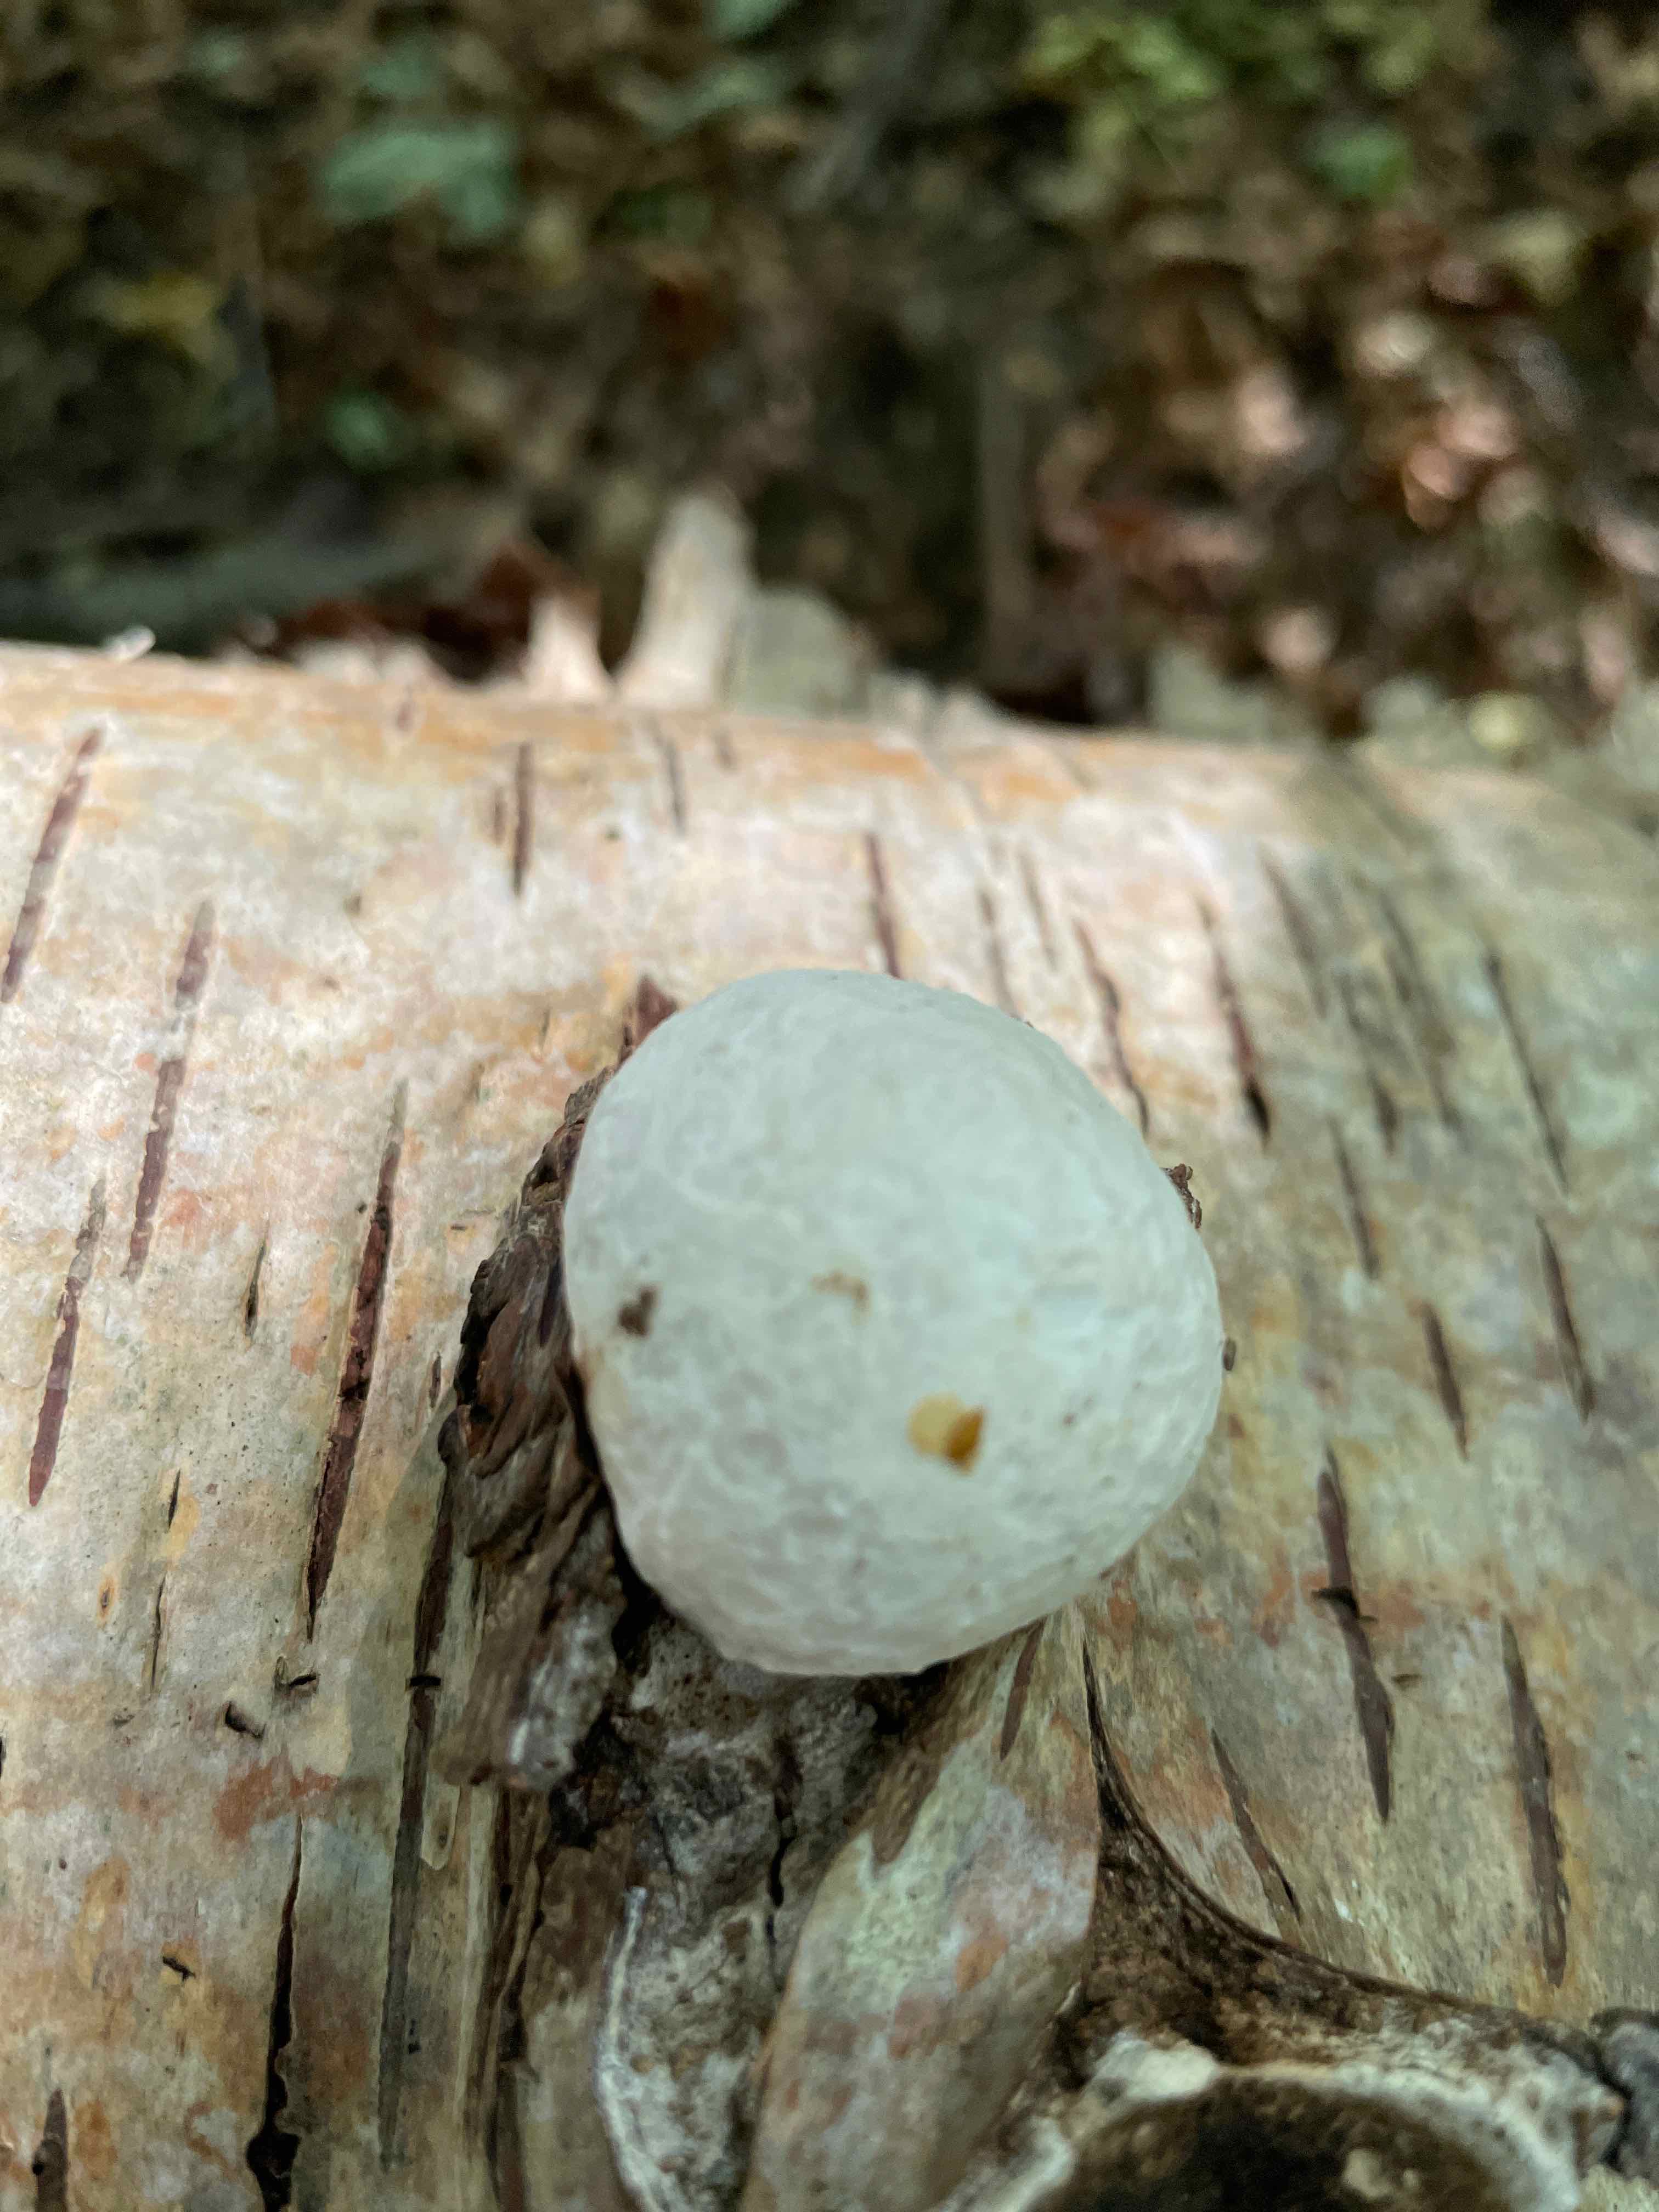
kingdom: Fungi
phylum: Basidiomycota
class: Agaricomycetes
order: Polyporales
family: Fomitopsidaceae
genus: Fomitopsis
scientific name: Fomitopsis betulina
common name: birkeporesvamp
